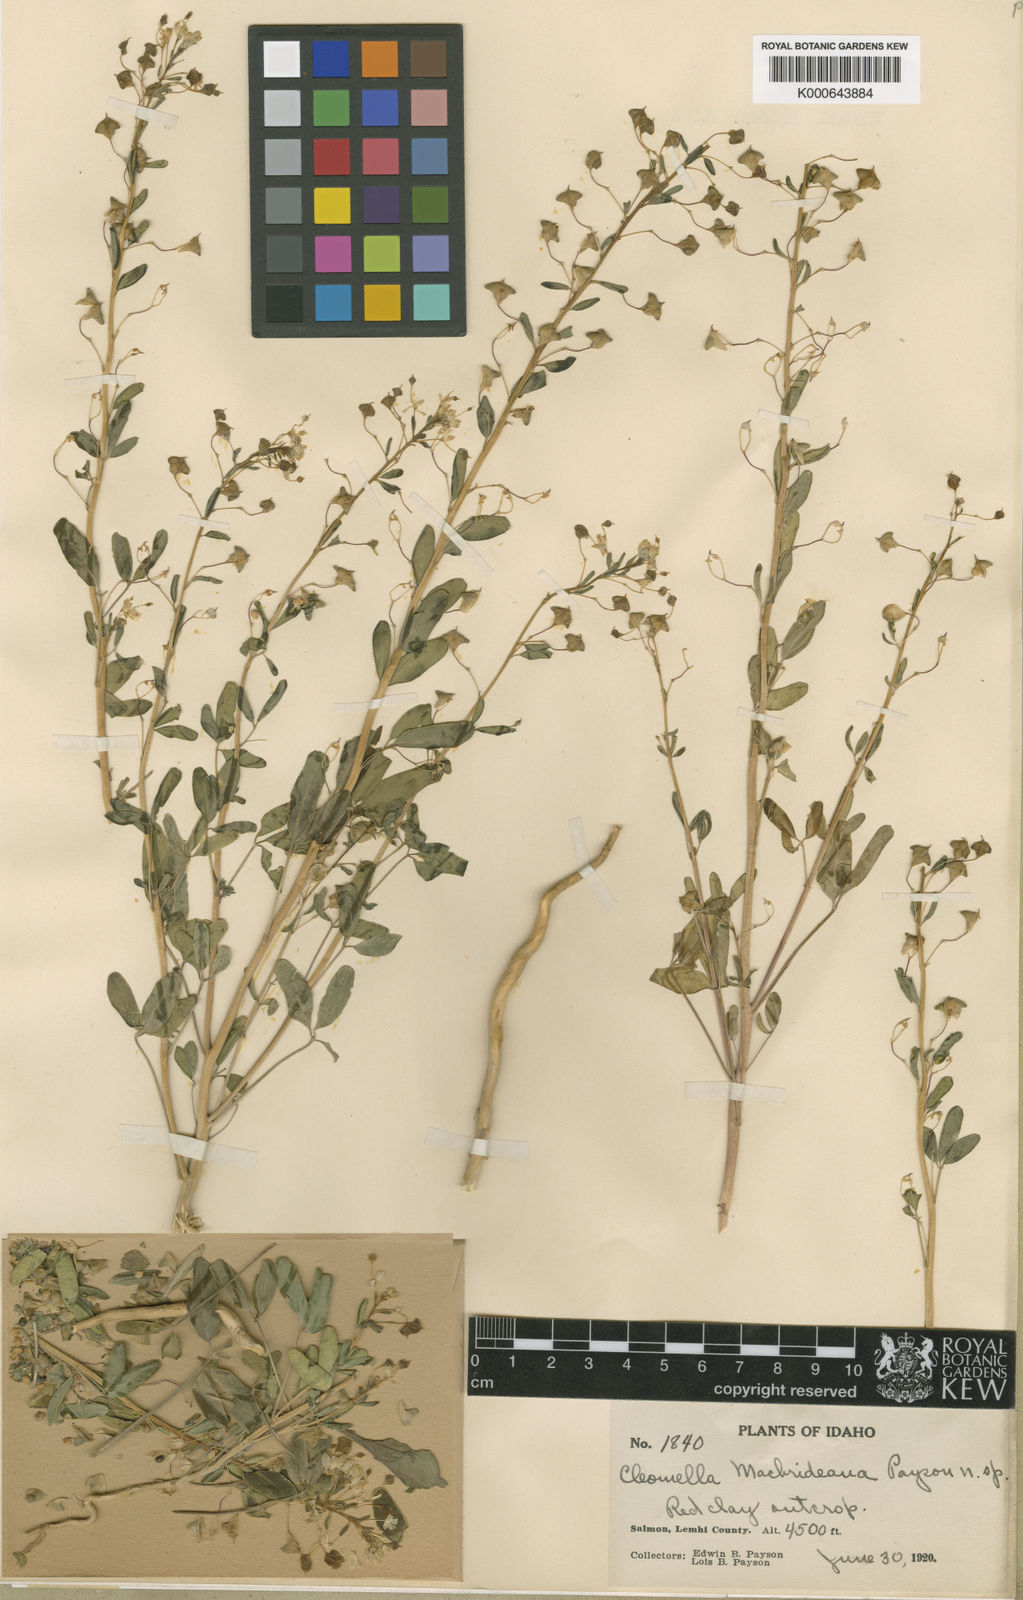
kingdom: Plantae
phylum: Tracheophyta
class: Magnoliopsida
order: Brassicales
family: Cleomaceae
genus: Cleomella
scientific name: Cleomella macbrideana
